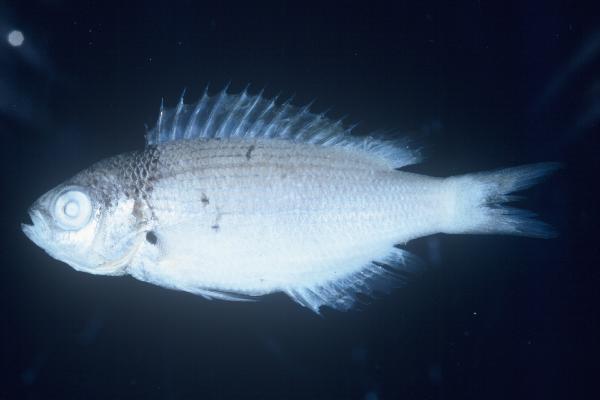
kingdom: Animalia
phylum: Chordata
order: Perciformes
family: Pomacentridae
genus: Teixeirichthys
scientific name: Teixeirichthys jordani
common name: Jordan's damsel
